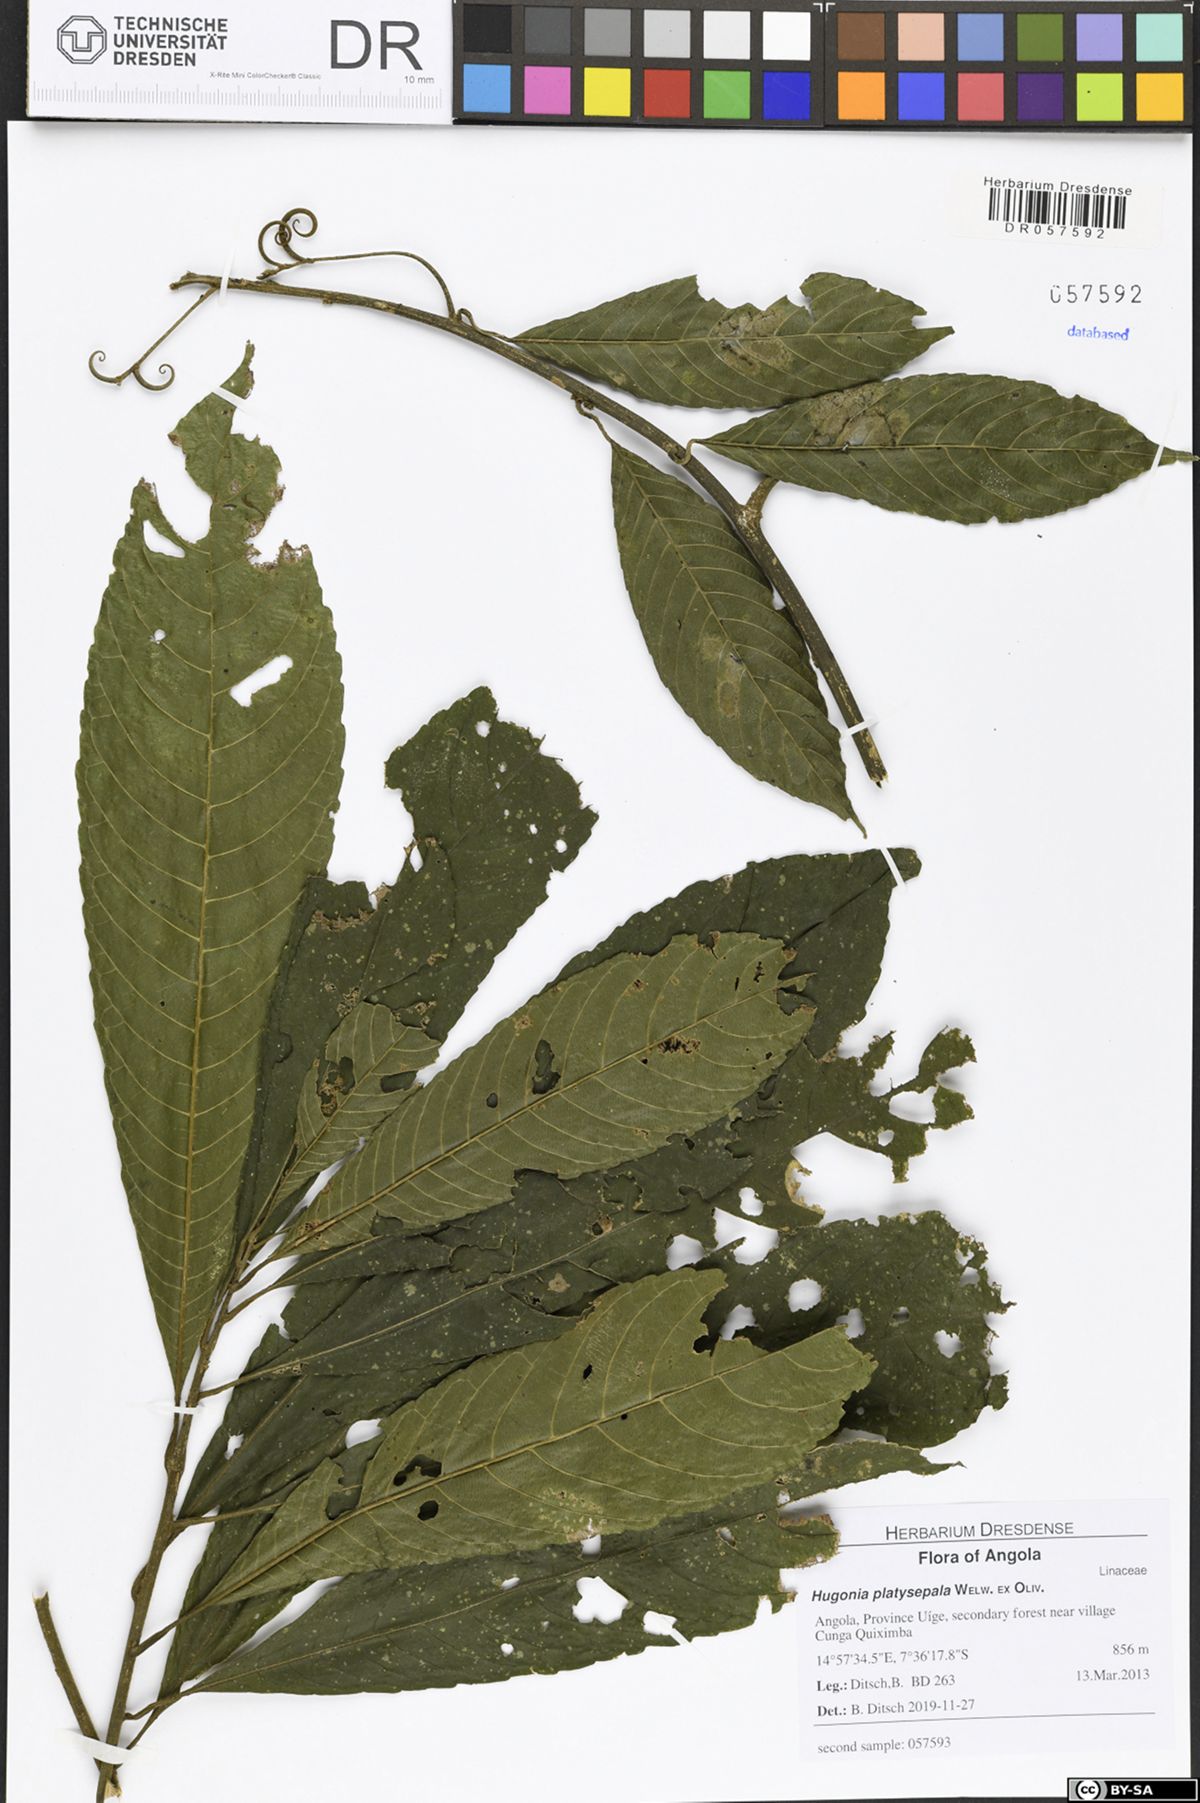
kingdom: Plantae
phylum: Tracheophyta
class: Magnoliopsida
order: Malpighiales
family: Linaceae
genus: Hugonia
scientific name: Hugonia platysepala
